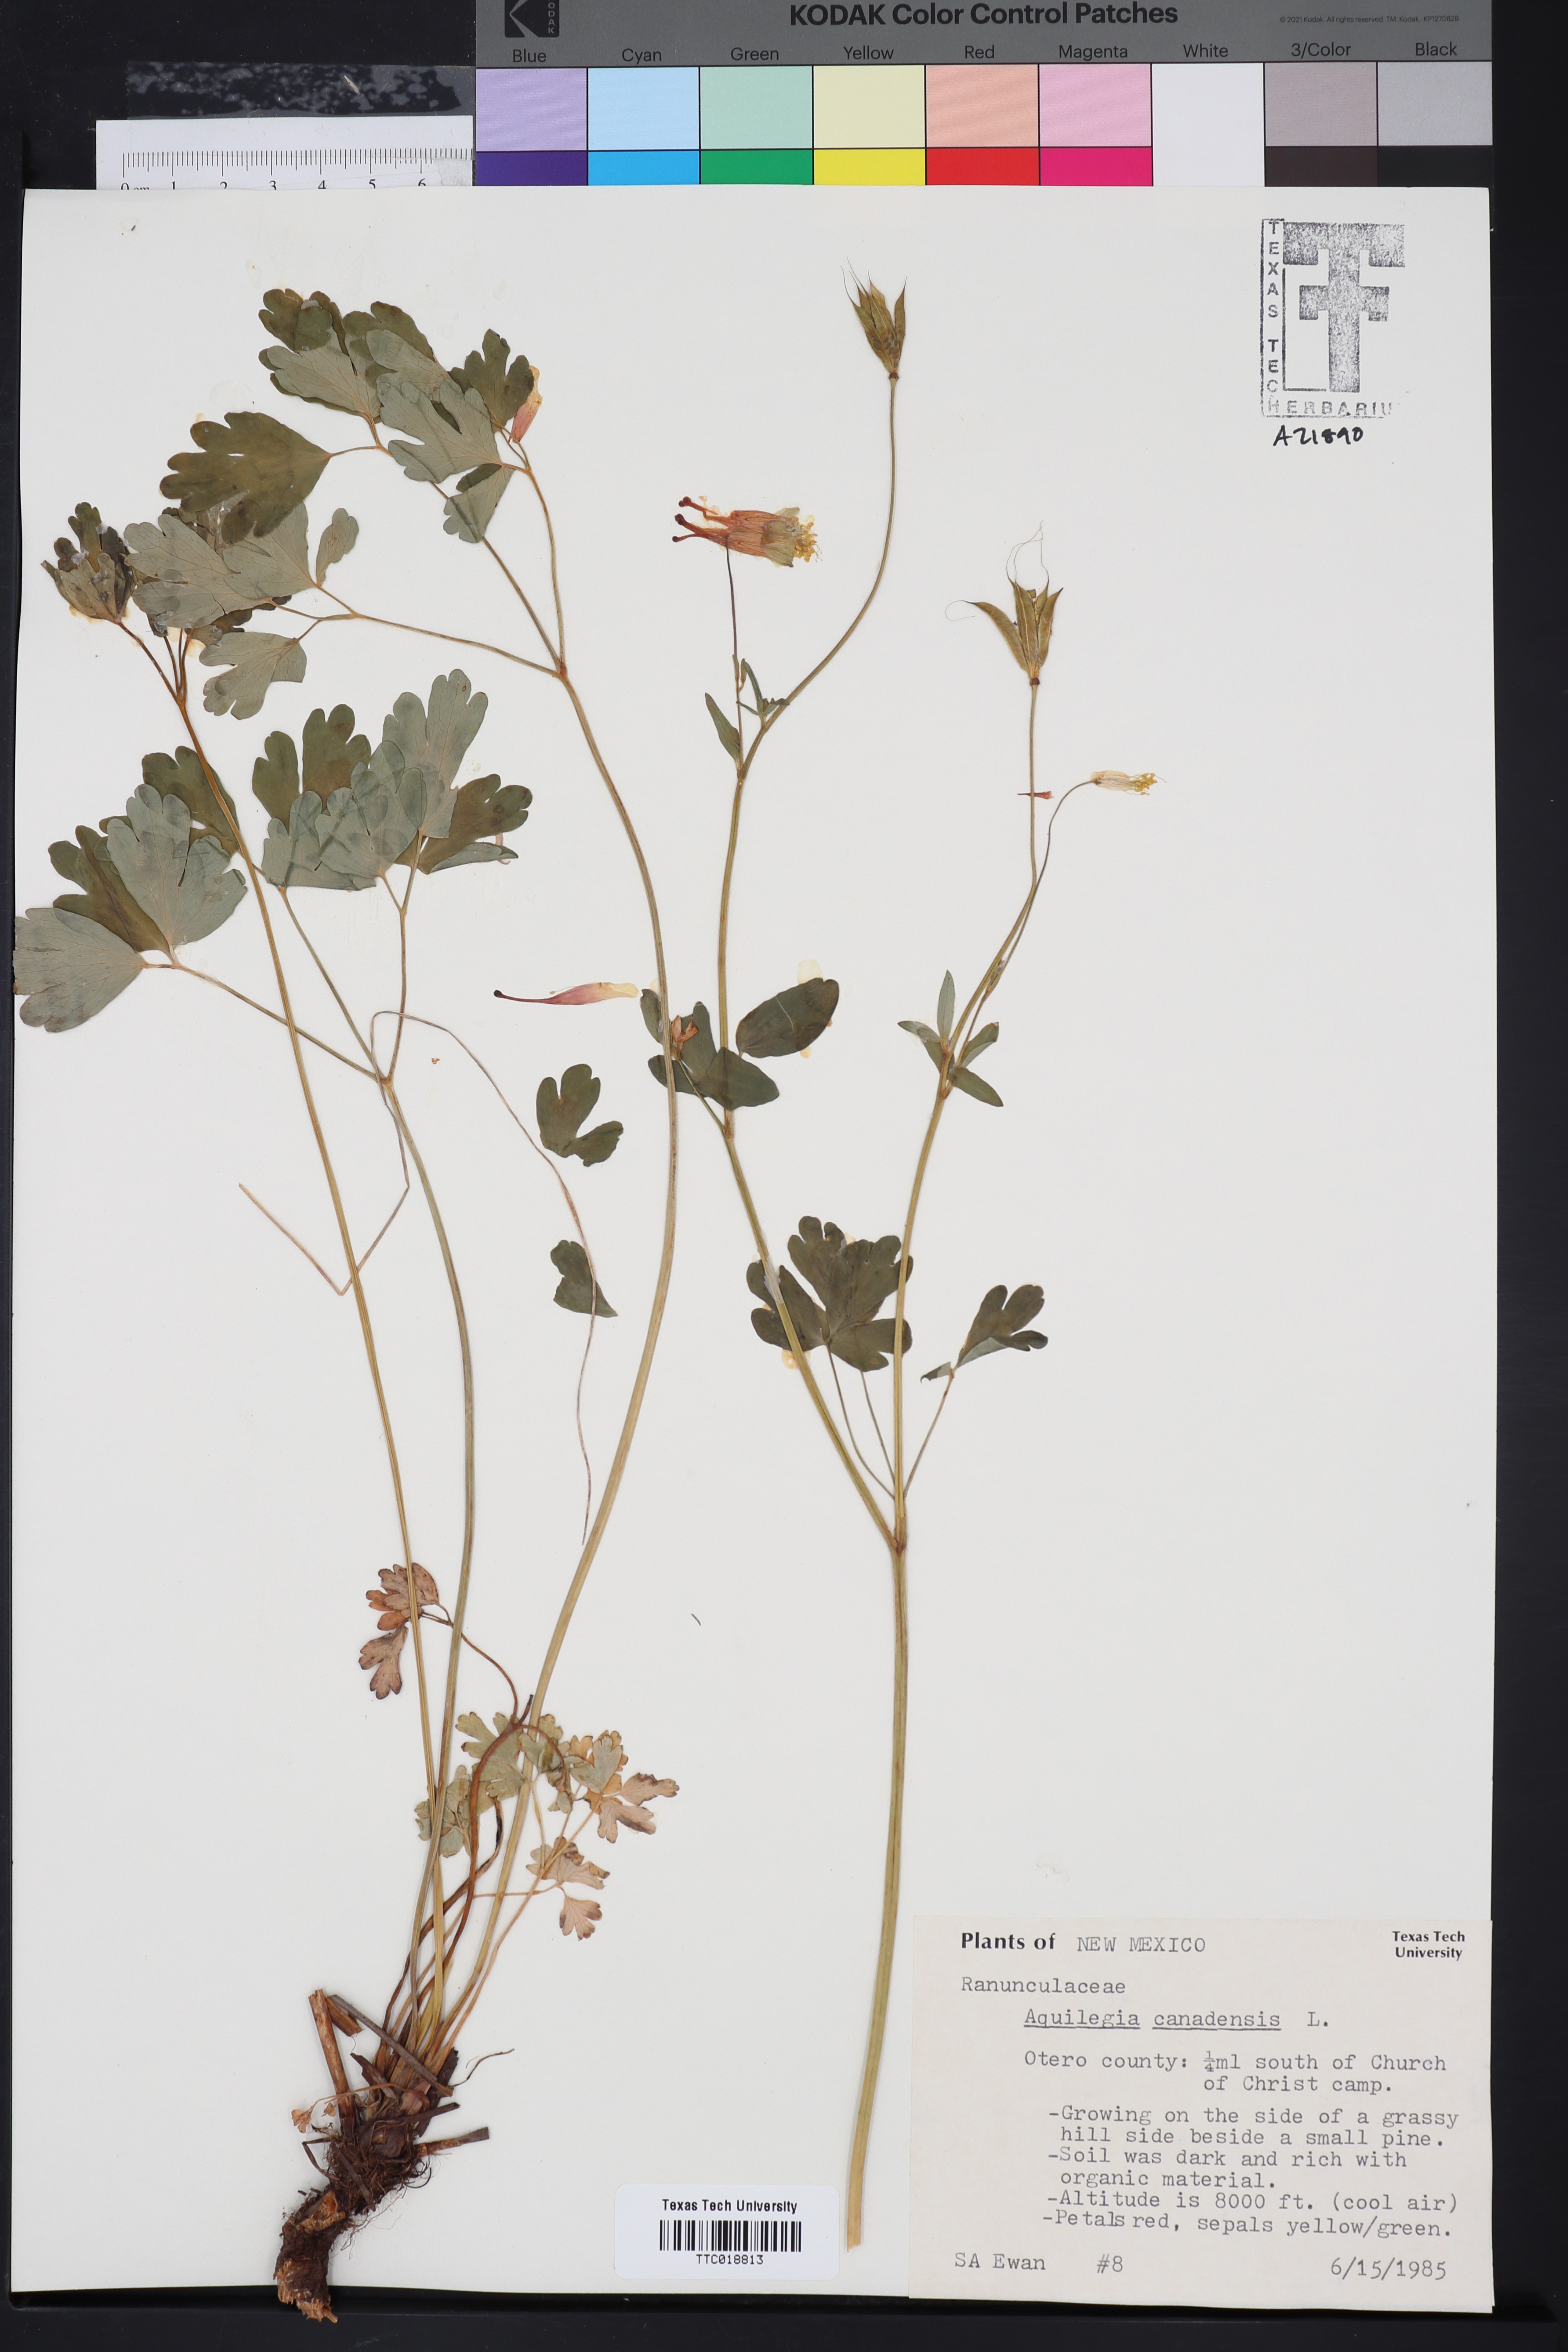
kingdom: Plantae
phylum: Tracheophyta
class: Magnoliopsida
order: Ranunculales
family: Ranunculaceae
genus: Aquilegia
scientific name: Aquilegia canadensis
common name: American columbine
